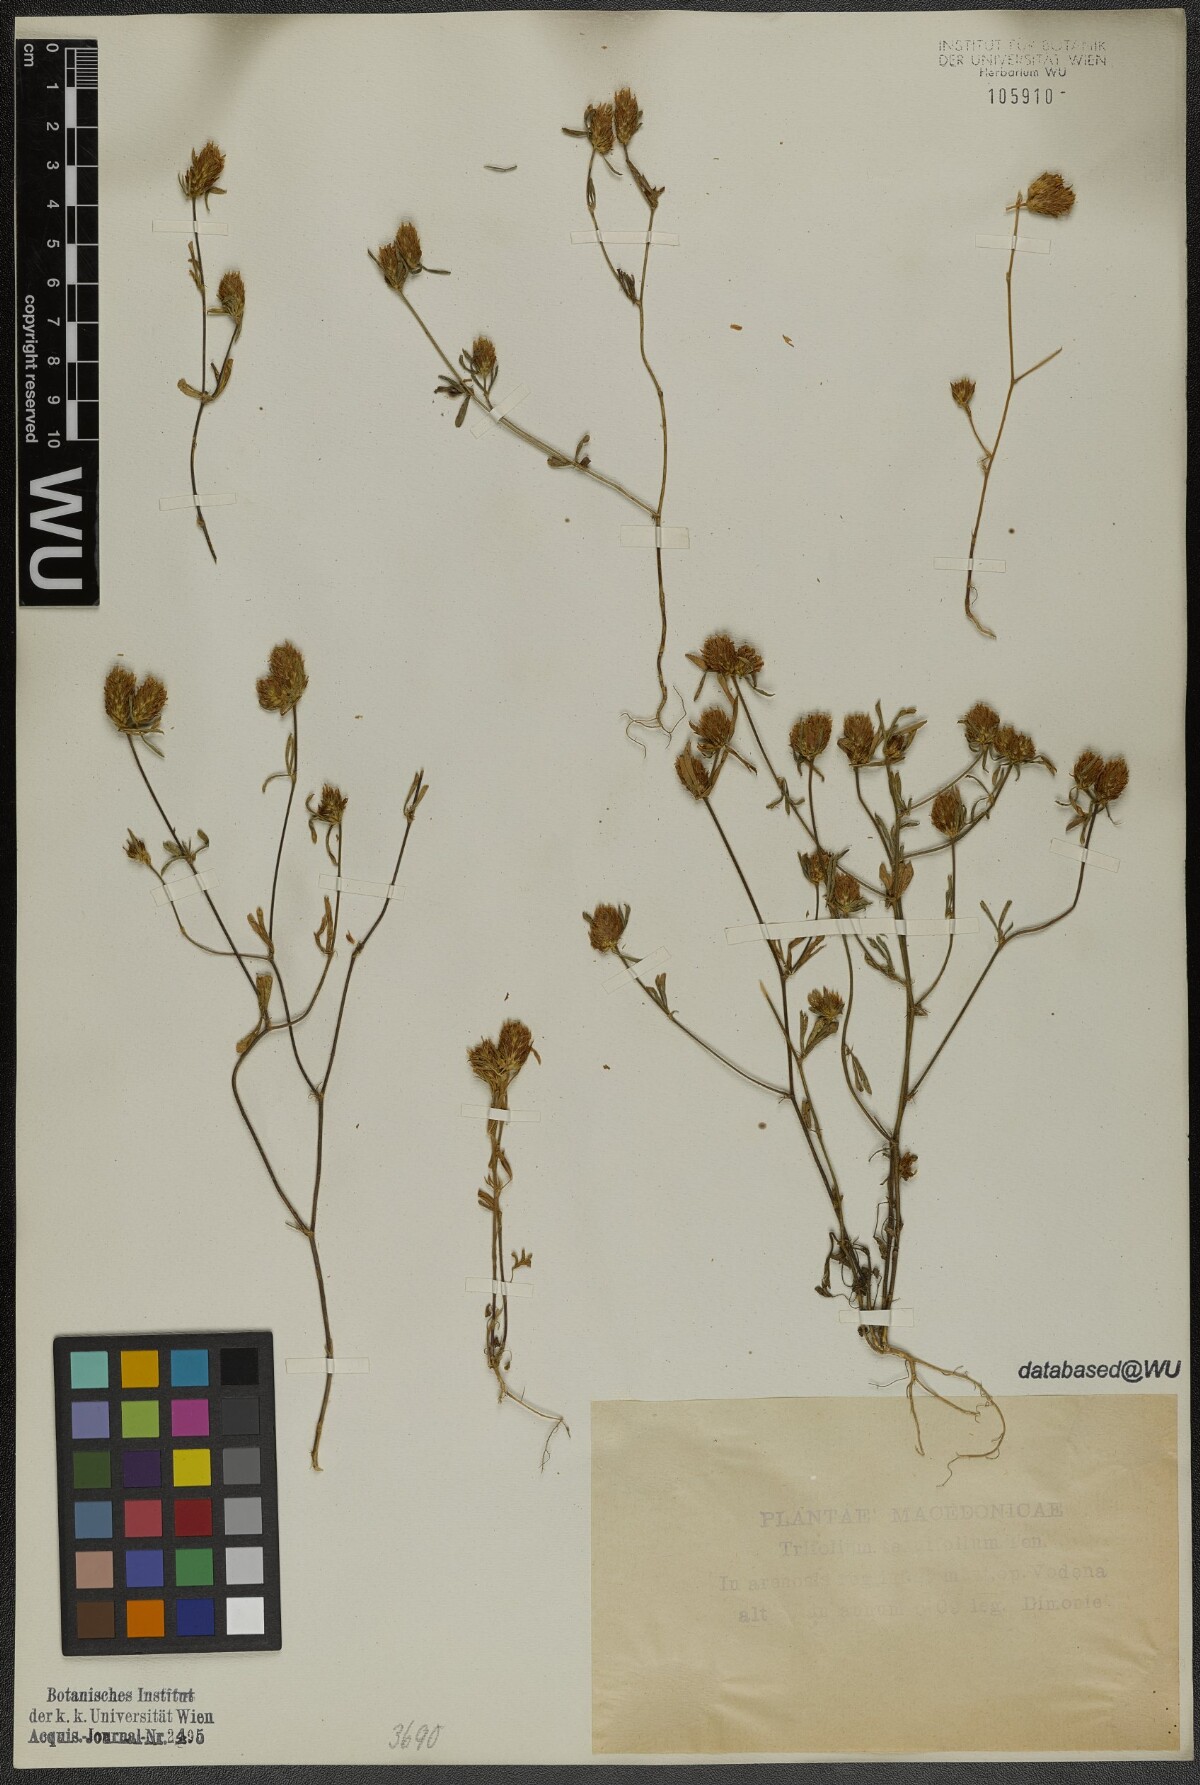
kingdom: Plantae
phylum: Tracheophyta
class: Magnoliopsida
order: Fabales
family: Fabaceae
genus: Trifolium
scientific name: Trifolium tenuifolium
